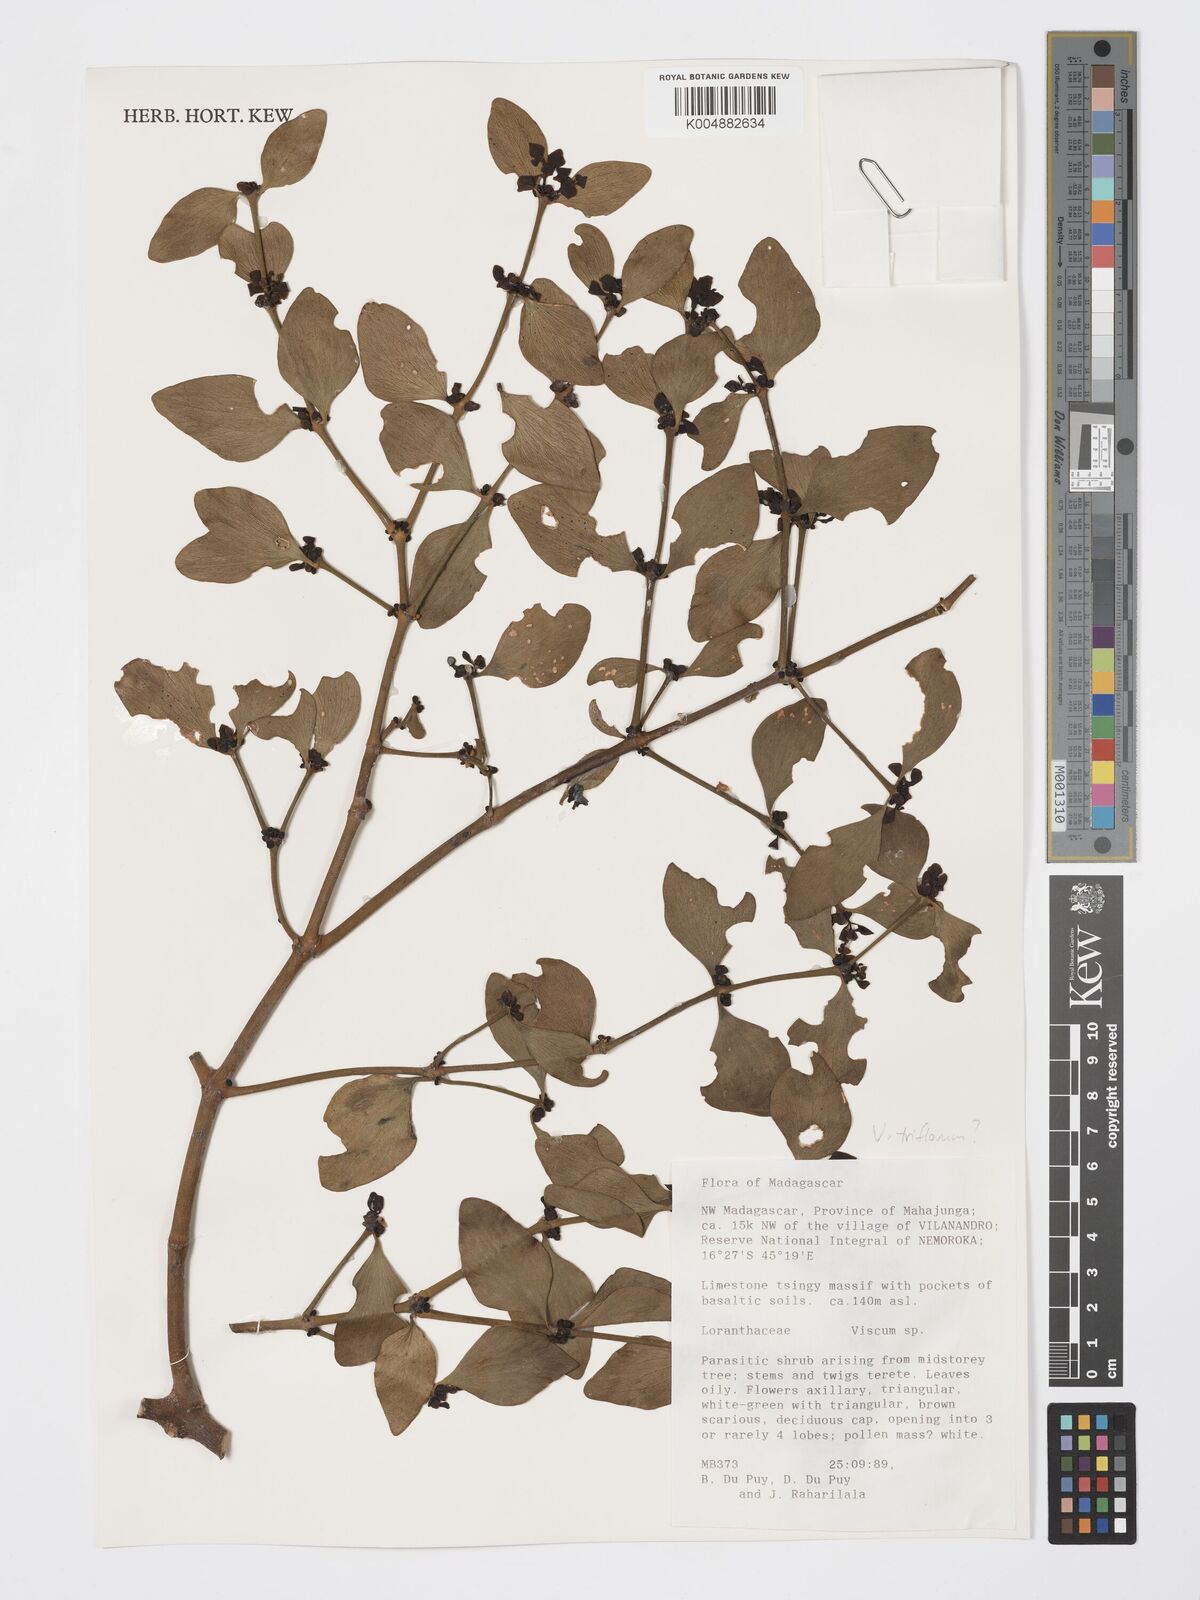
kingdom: Plantae
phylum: Tracheophyta
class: Magnoliopsida
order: Santalales
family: Viscaceae
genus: Viscum
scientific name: Viscum triflorum
